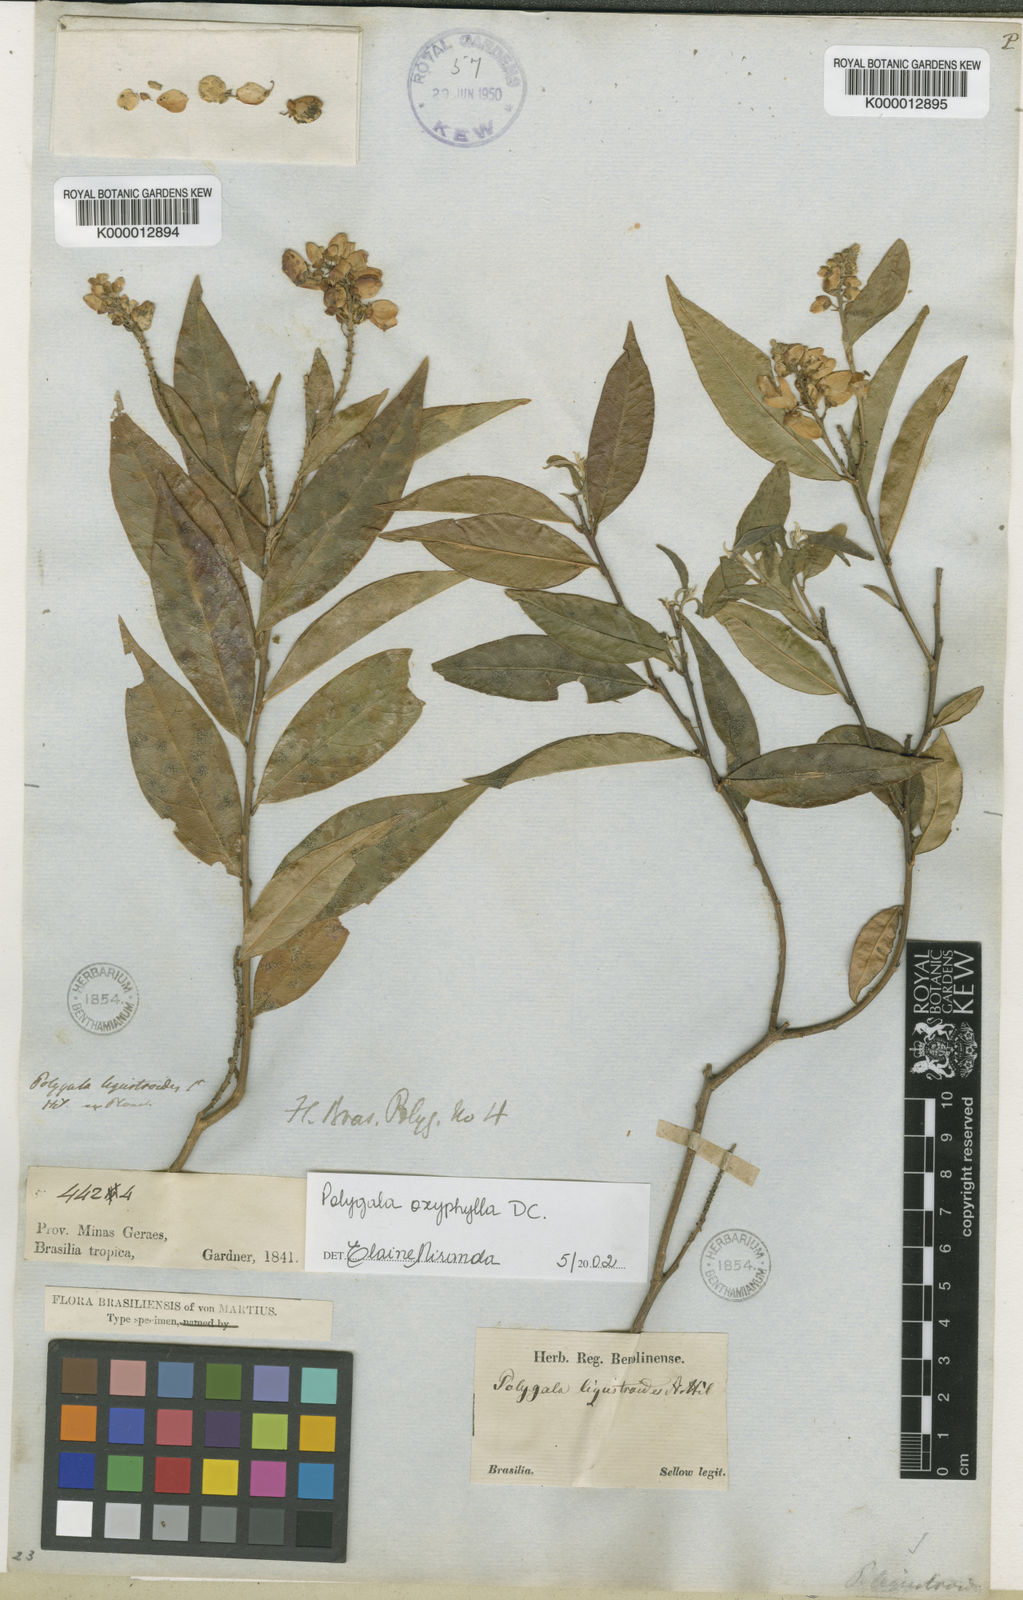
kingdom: Plantae
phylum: Tracheophyta
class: Magnoliopsida
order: Fabales
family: Polygalaceae
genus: Caamembeca
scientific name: Caamembeca oxyphylla
